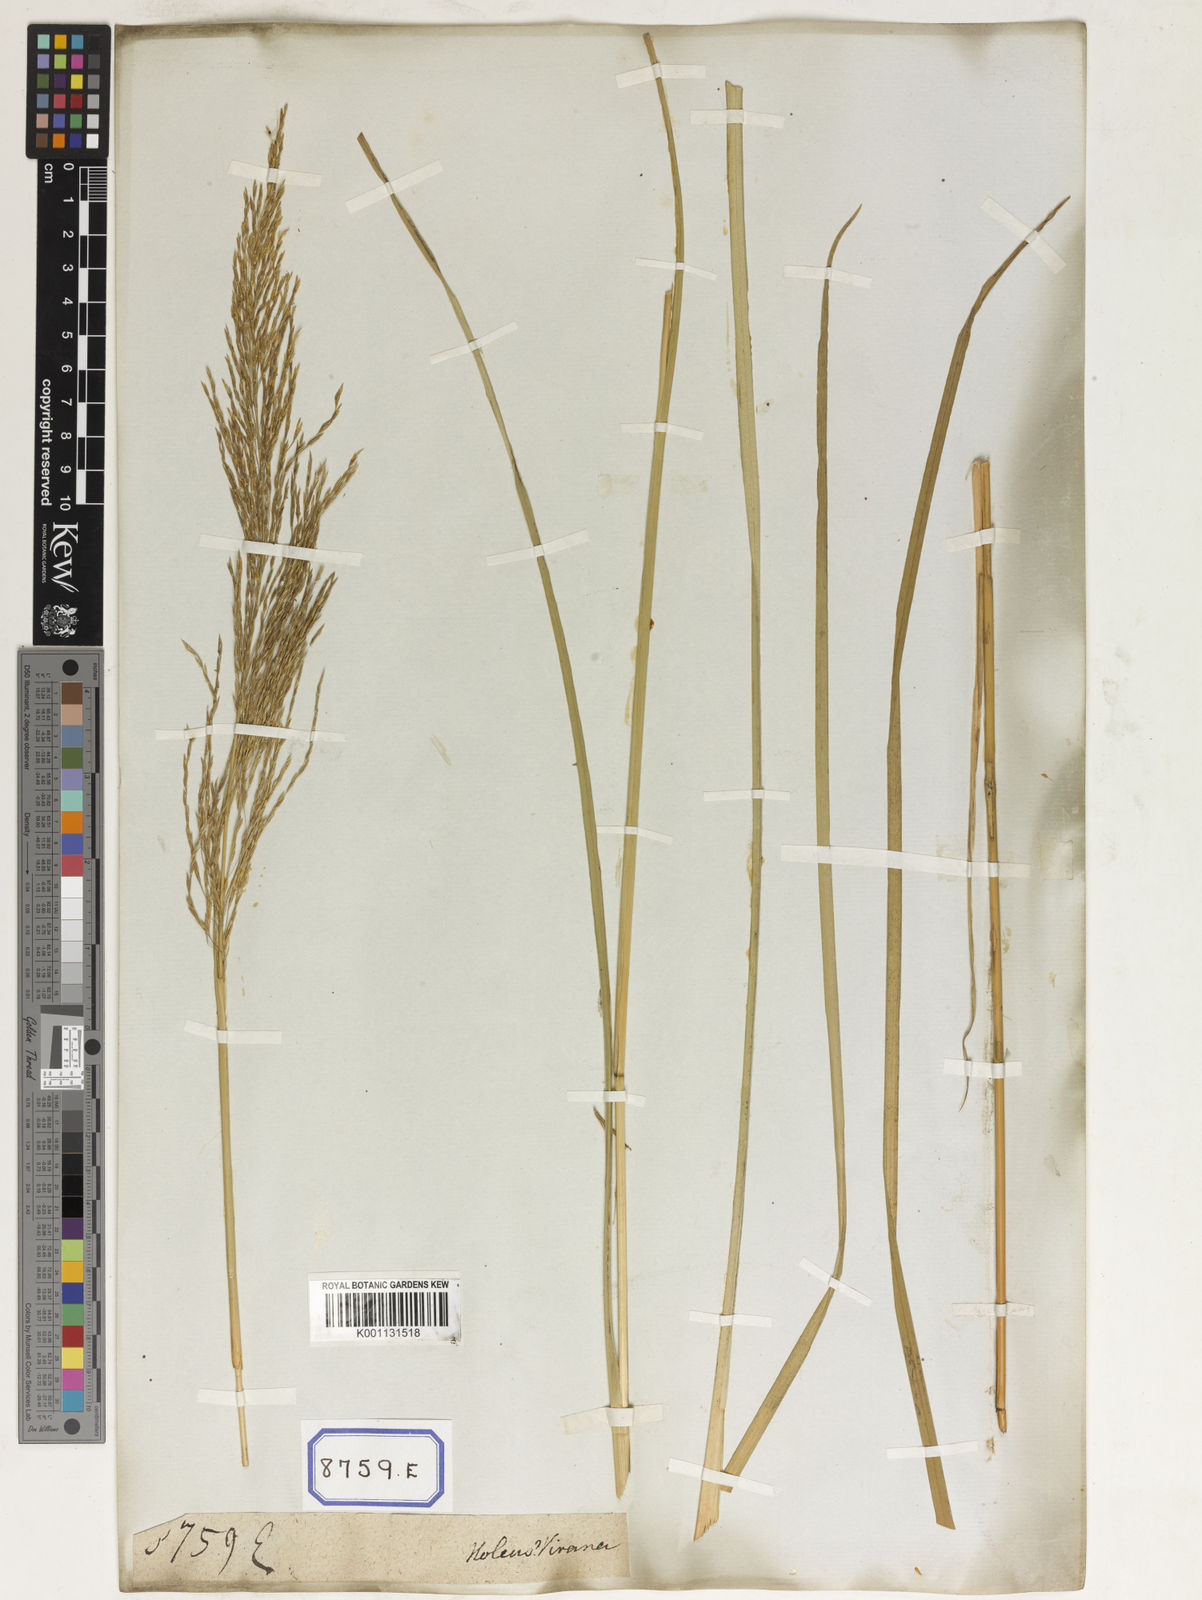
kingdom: Plantae
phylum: Tracheophyta
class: Liliopsida
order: Poales
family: Poaceae
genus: Chrysopogon
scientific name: Chrysopogon zizanioides
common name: False beardgrass
